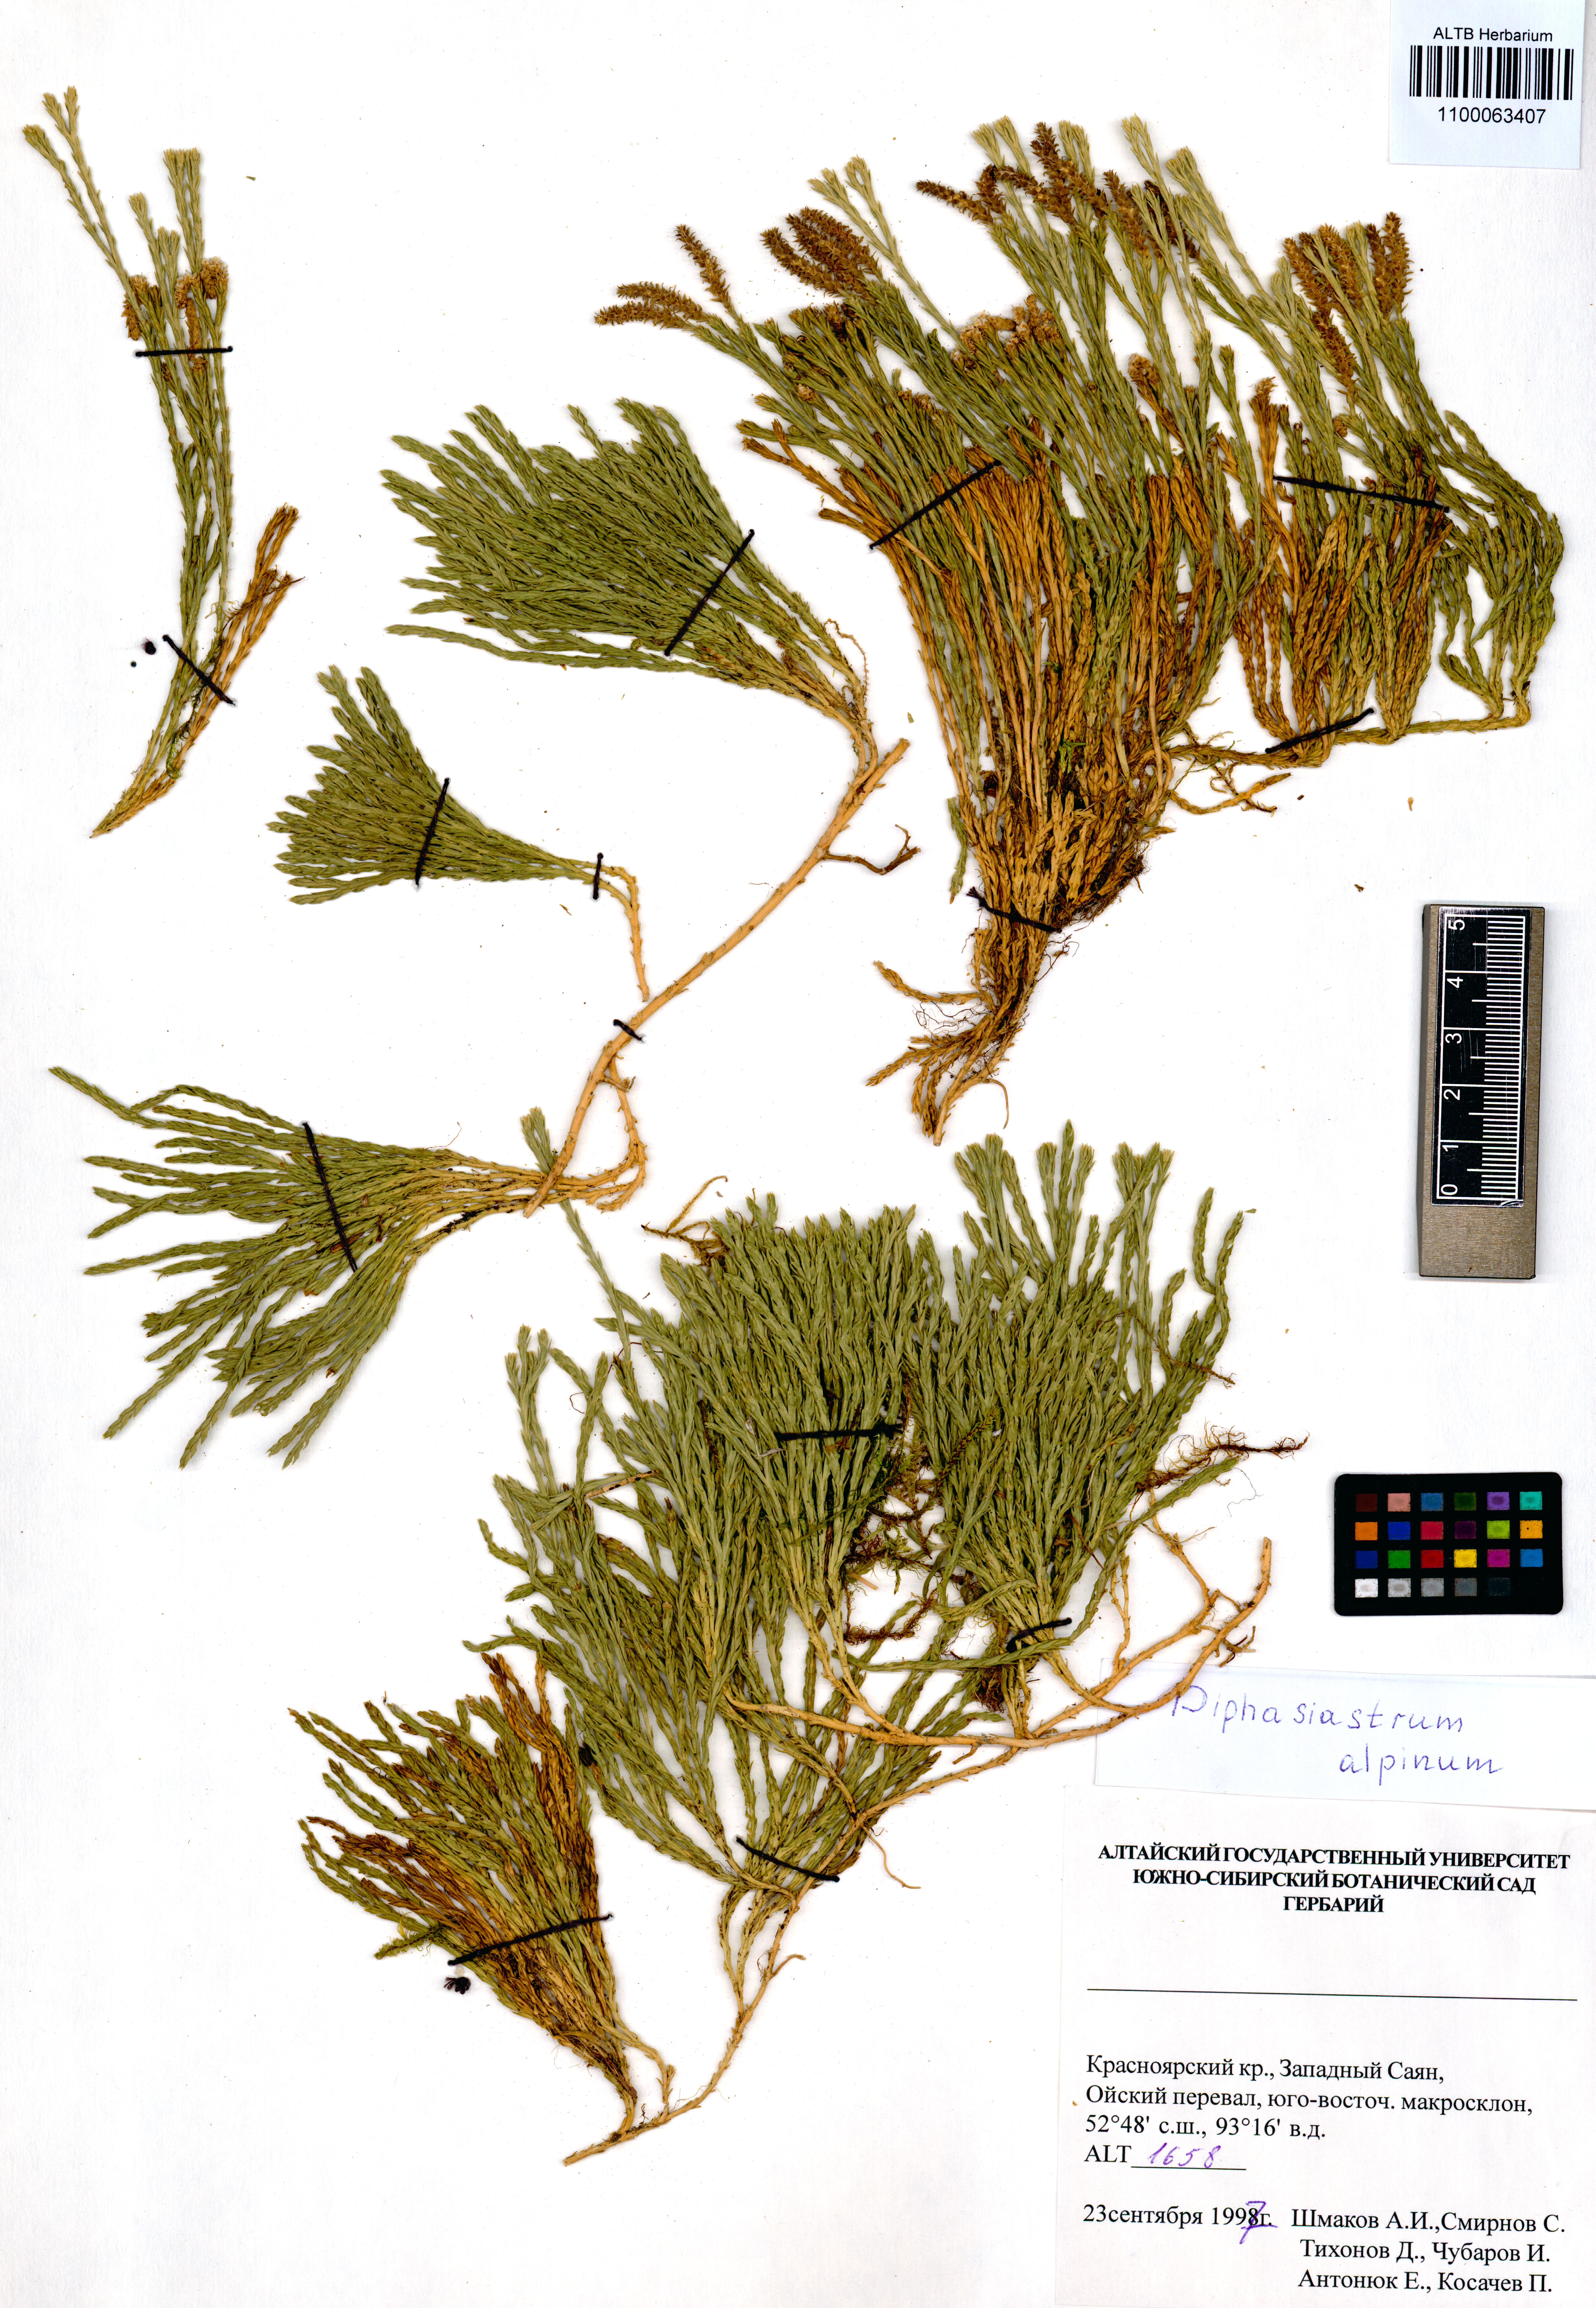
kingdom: Plantae
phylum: Tracheophyta
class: Lycopodiopsida
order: Lycopodiales
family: Lycopodiaceae
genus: Diphasiastrum
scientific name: Diphasiastrum alpinum
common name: Alpine clubmoss
